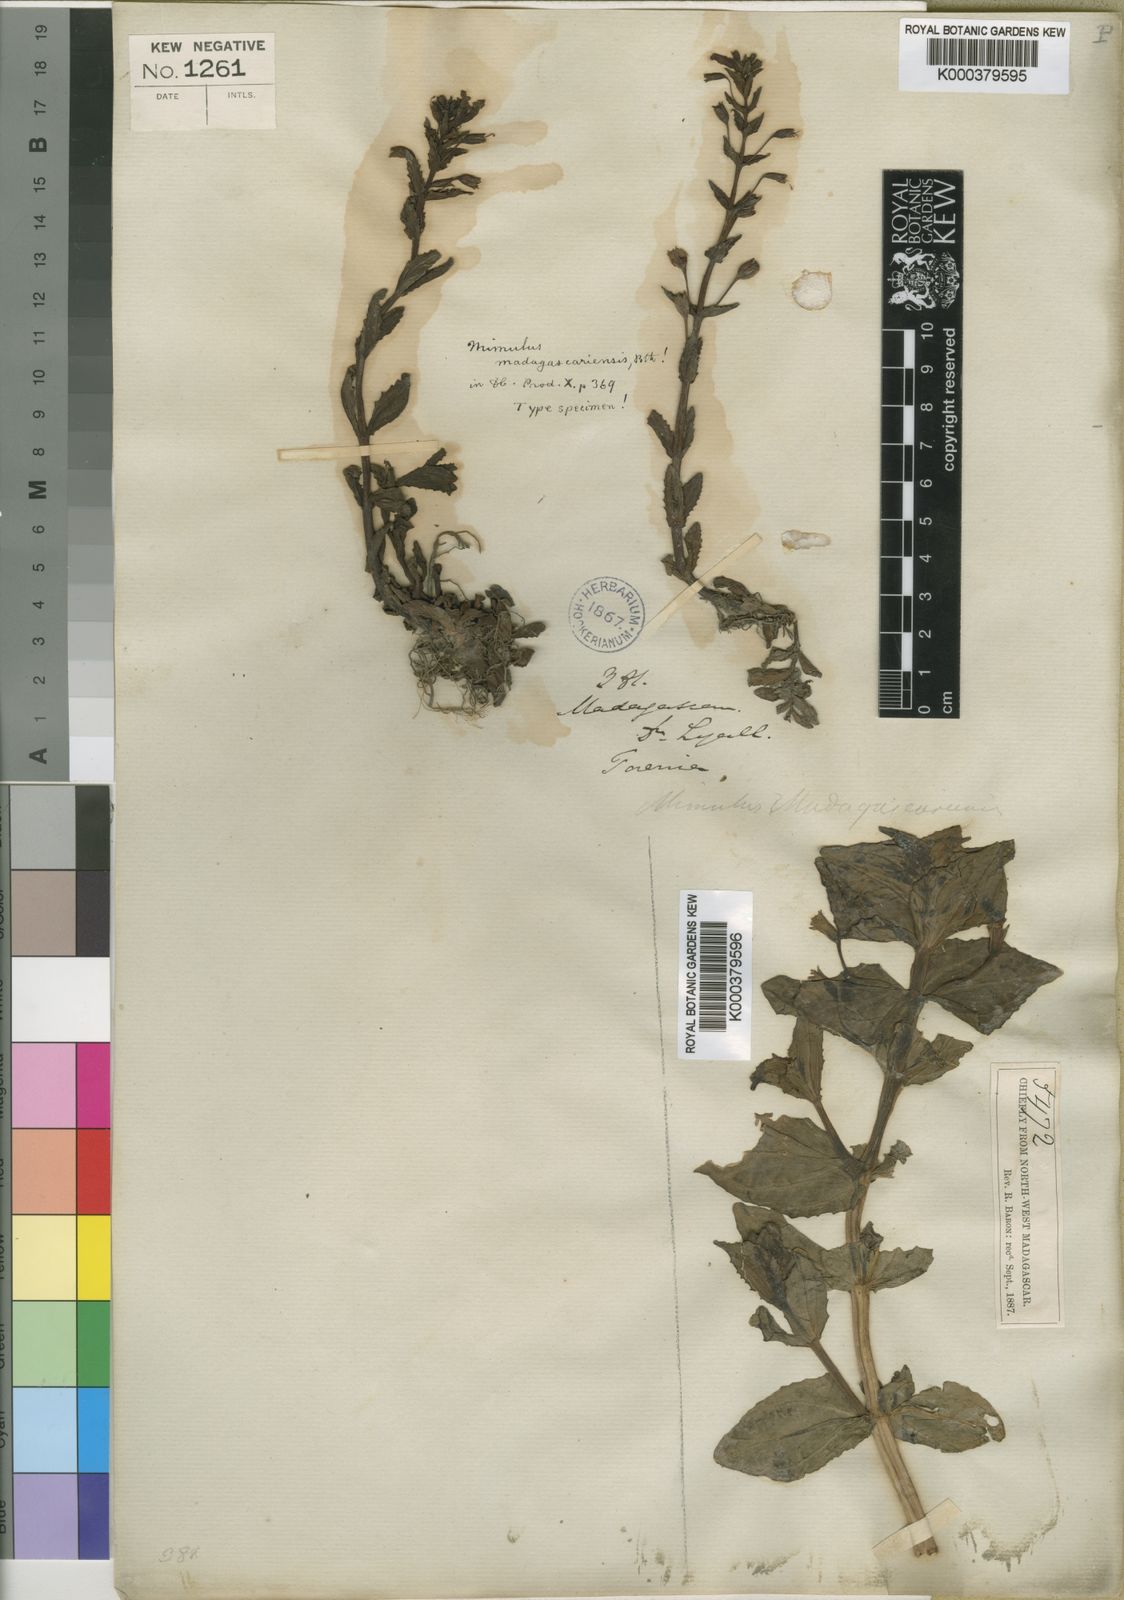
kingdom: Plantae
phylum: Tracheophyta
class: Magnoliopsida
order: Lamiales
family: Phrymaceae
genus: Mimulus
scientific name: Mimulus madagascariensis
